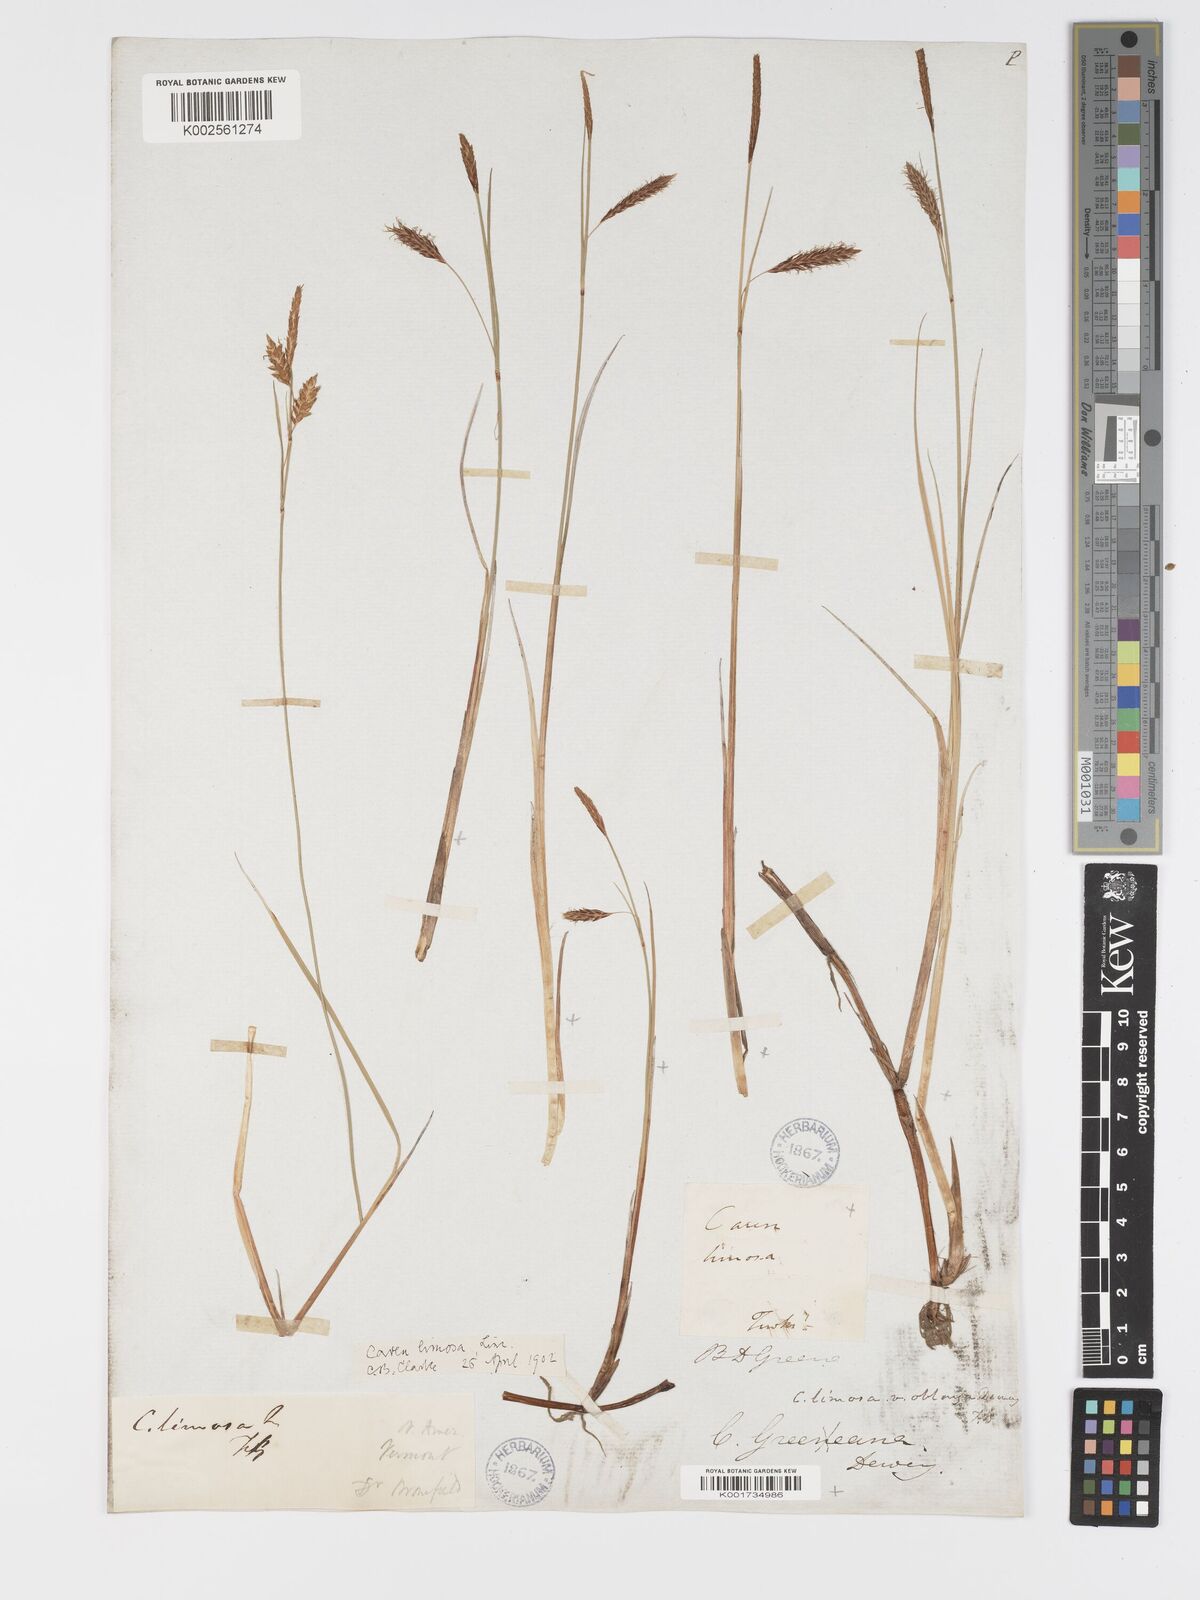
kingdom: Plantae
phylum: Tracheophyta
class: Liliopsida
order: Poales
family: Cyperaceae
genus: Carex
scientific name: Carex limosa
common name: Bog sedge
